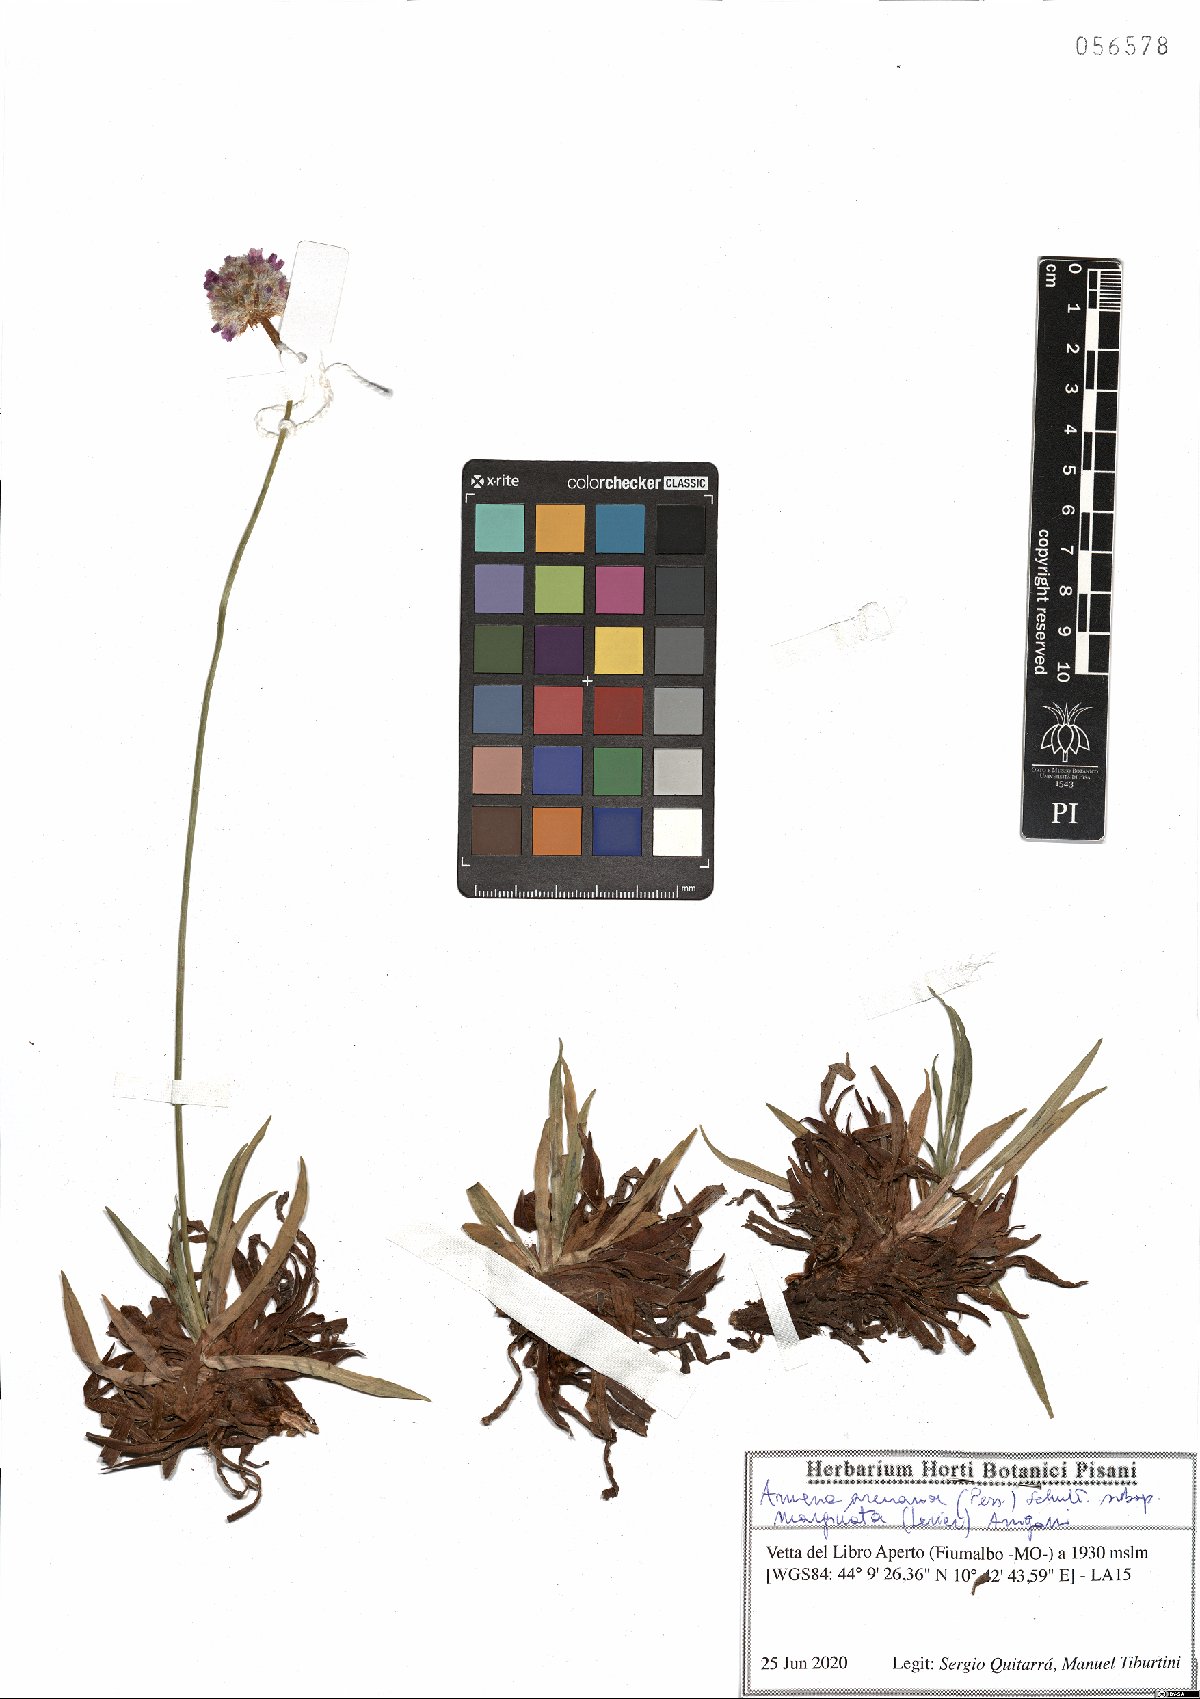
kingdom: Plantae
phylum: Tracheophyta
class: Magnoliopsida
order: Caryophyllales
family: Plumbaginaceae
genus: Armeria
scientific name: Armeria arenaria
